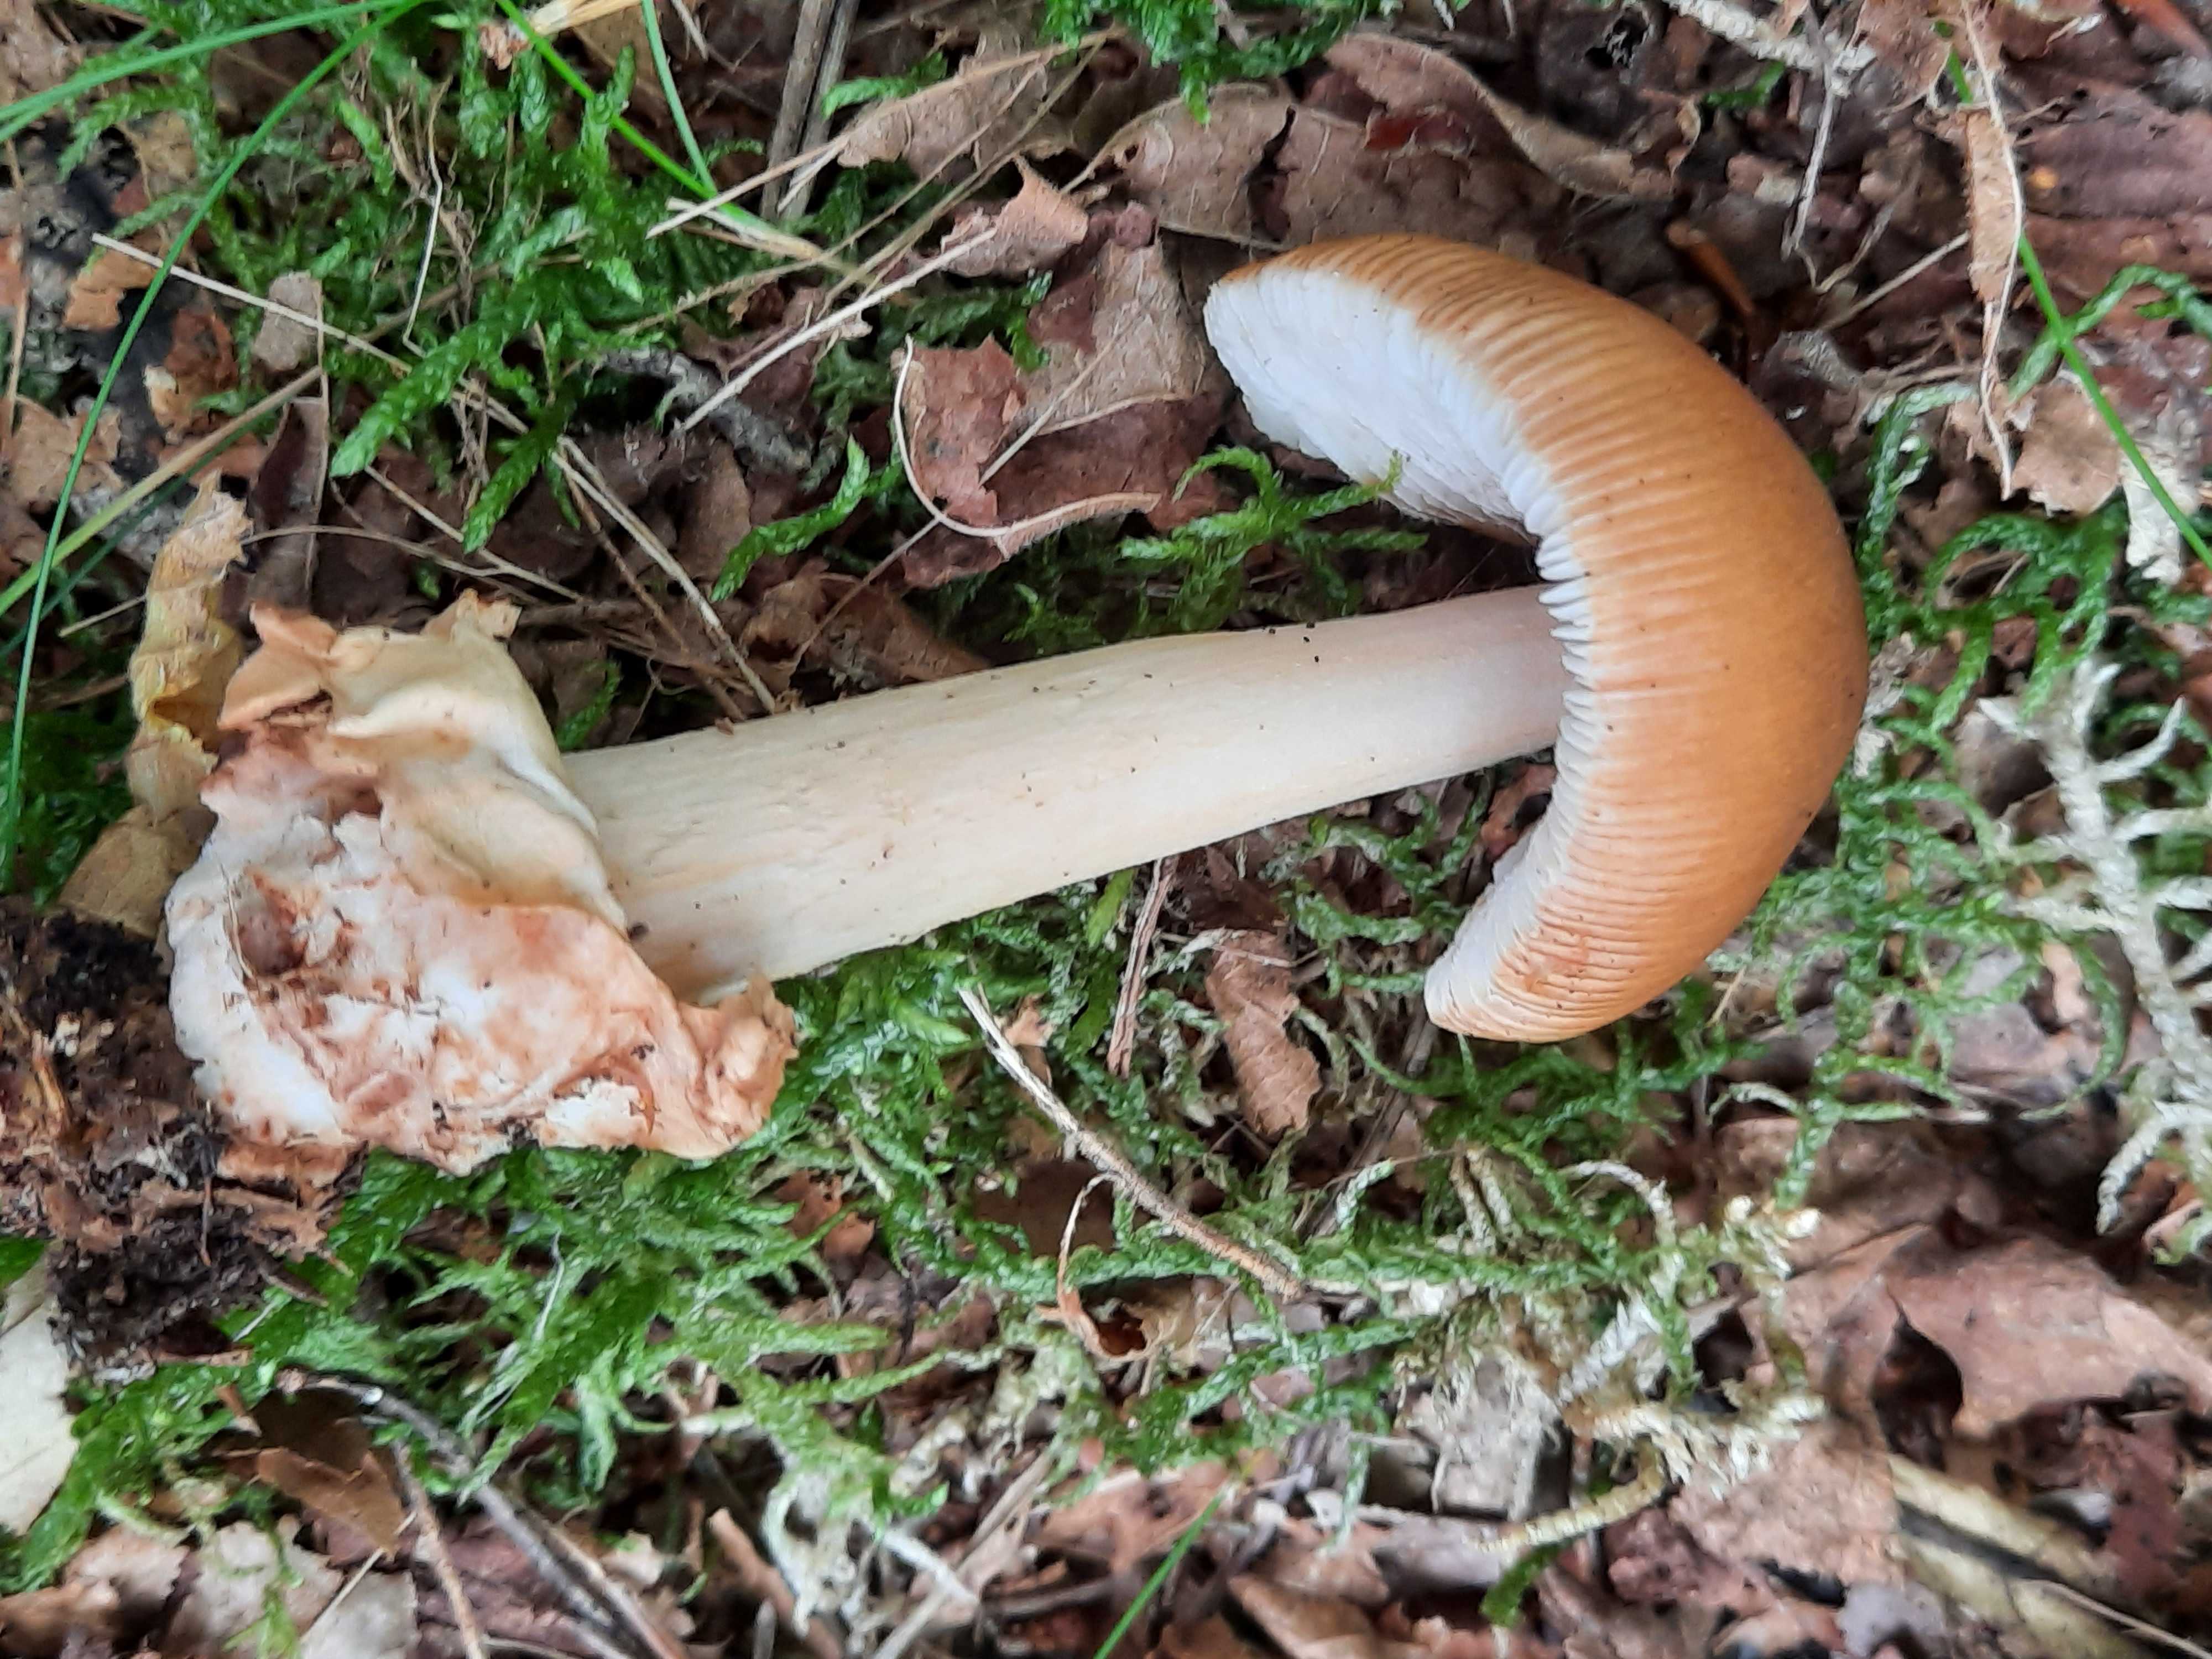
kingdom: Fungi
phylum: Basidiomycota
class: Agaricomycetes
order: Agaricales
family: Amanitaceae
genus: Amanita
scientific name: Amanita fulva
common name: brun kam-fluesvamp
